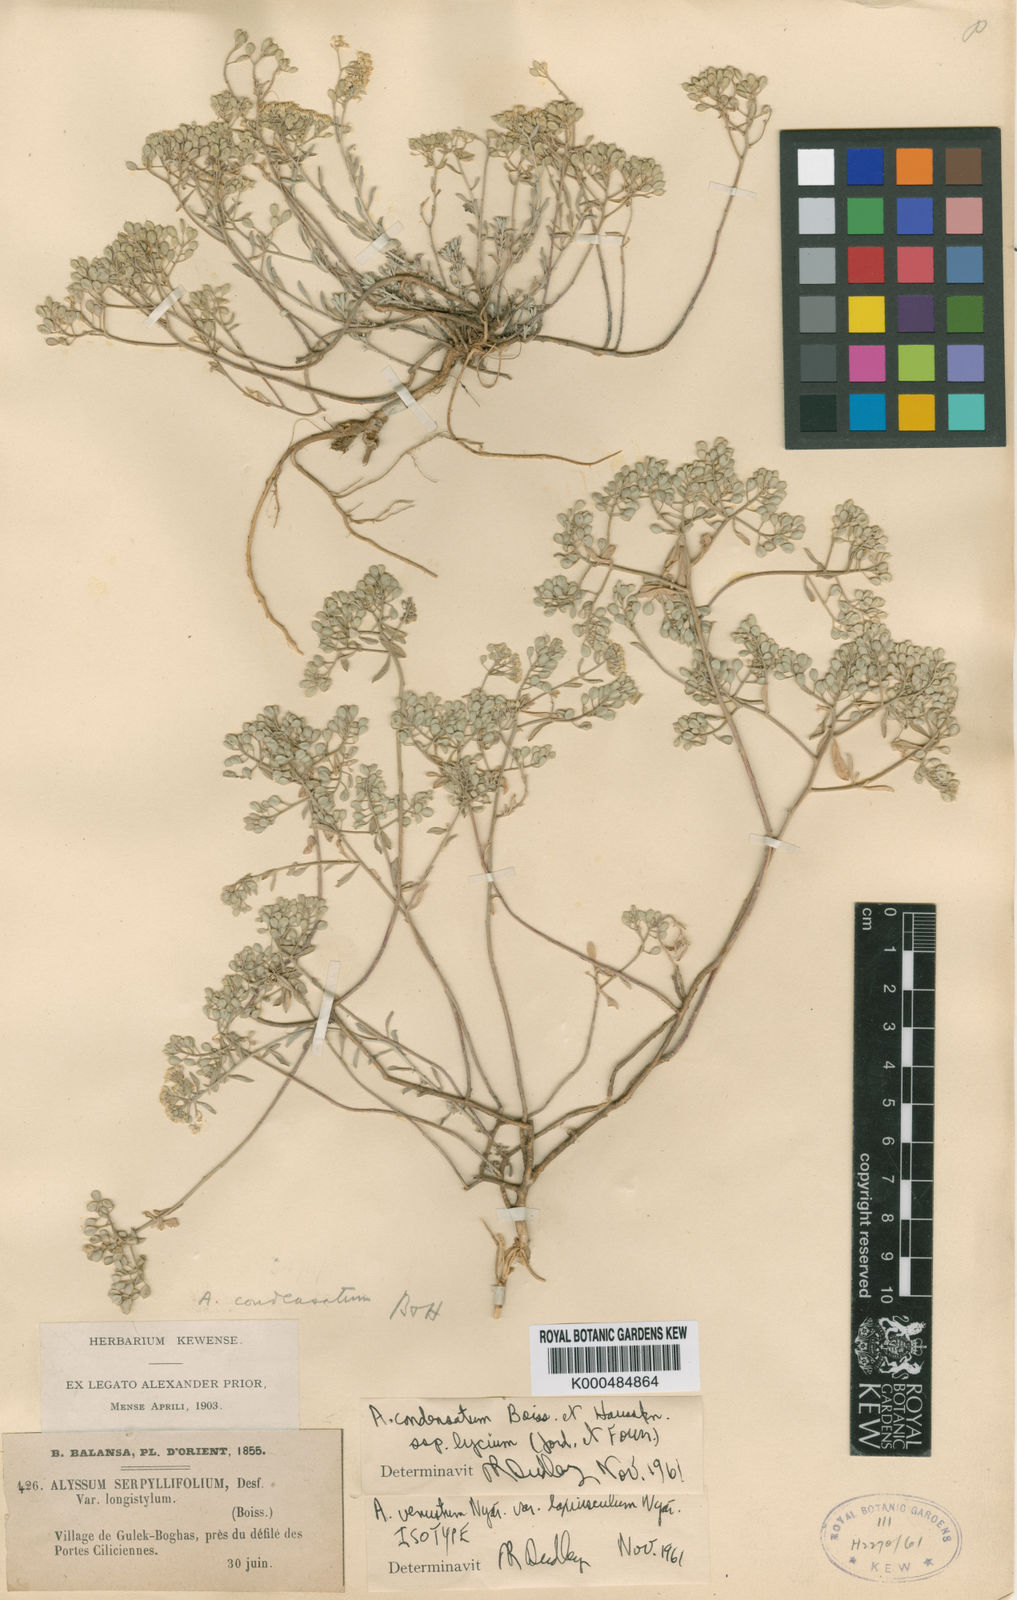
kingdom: Plantae
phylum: Tracheophyta
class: Magnoliopsida
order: Brassicales
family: Brassicaceae
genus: Odontarrhena
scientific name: Odontarrhena condensata
